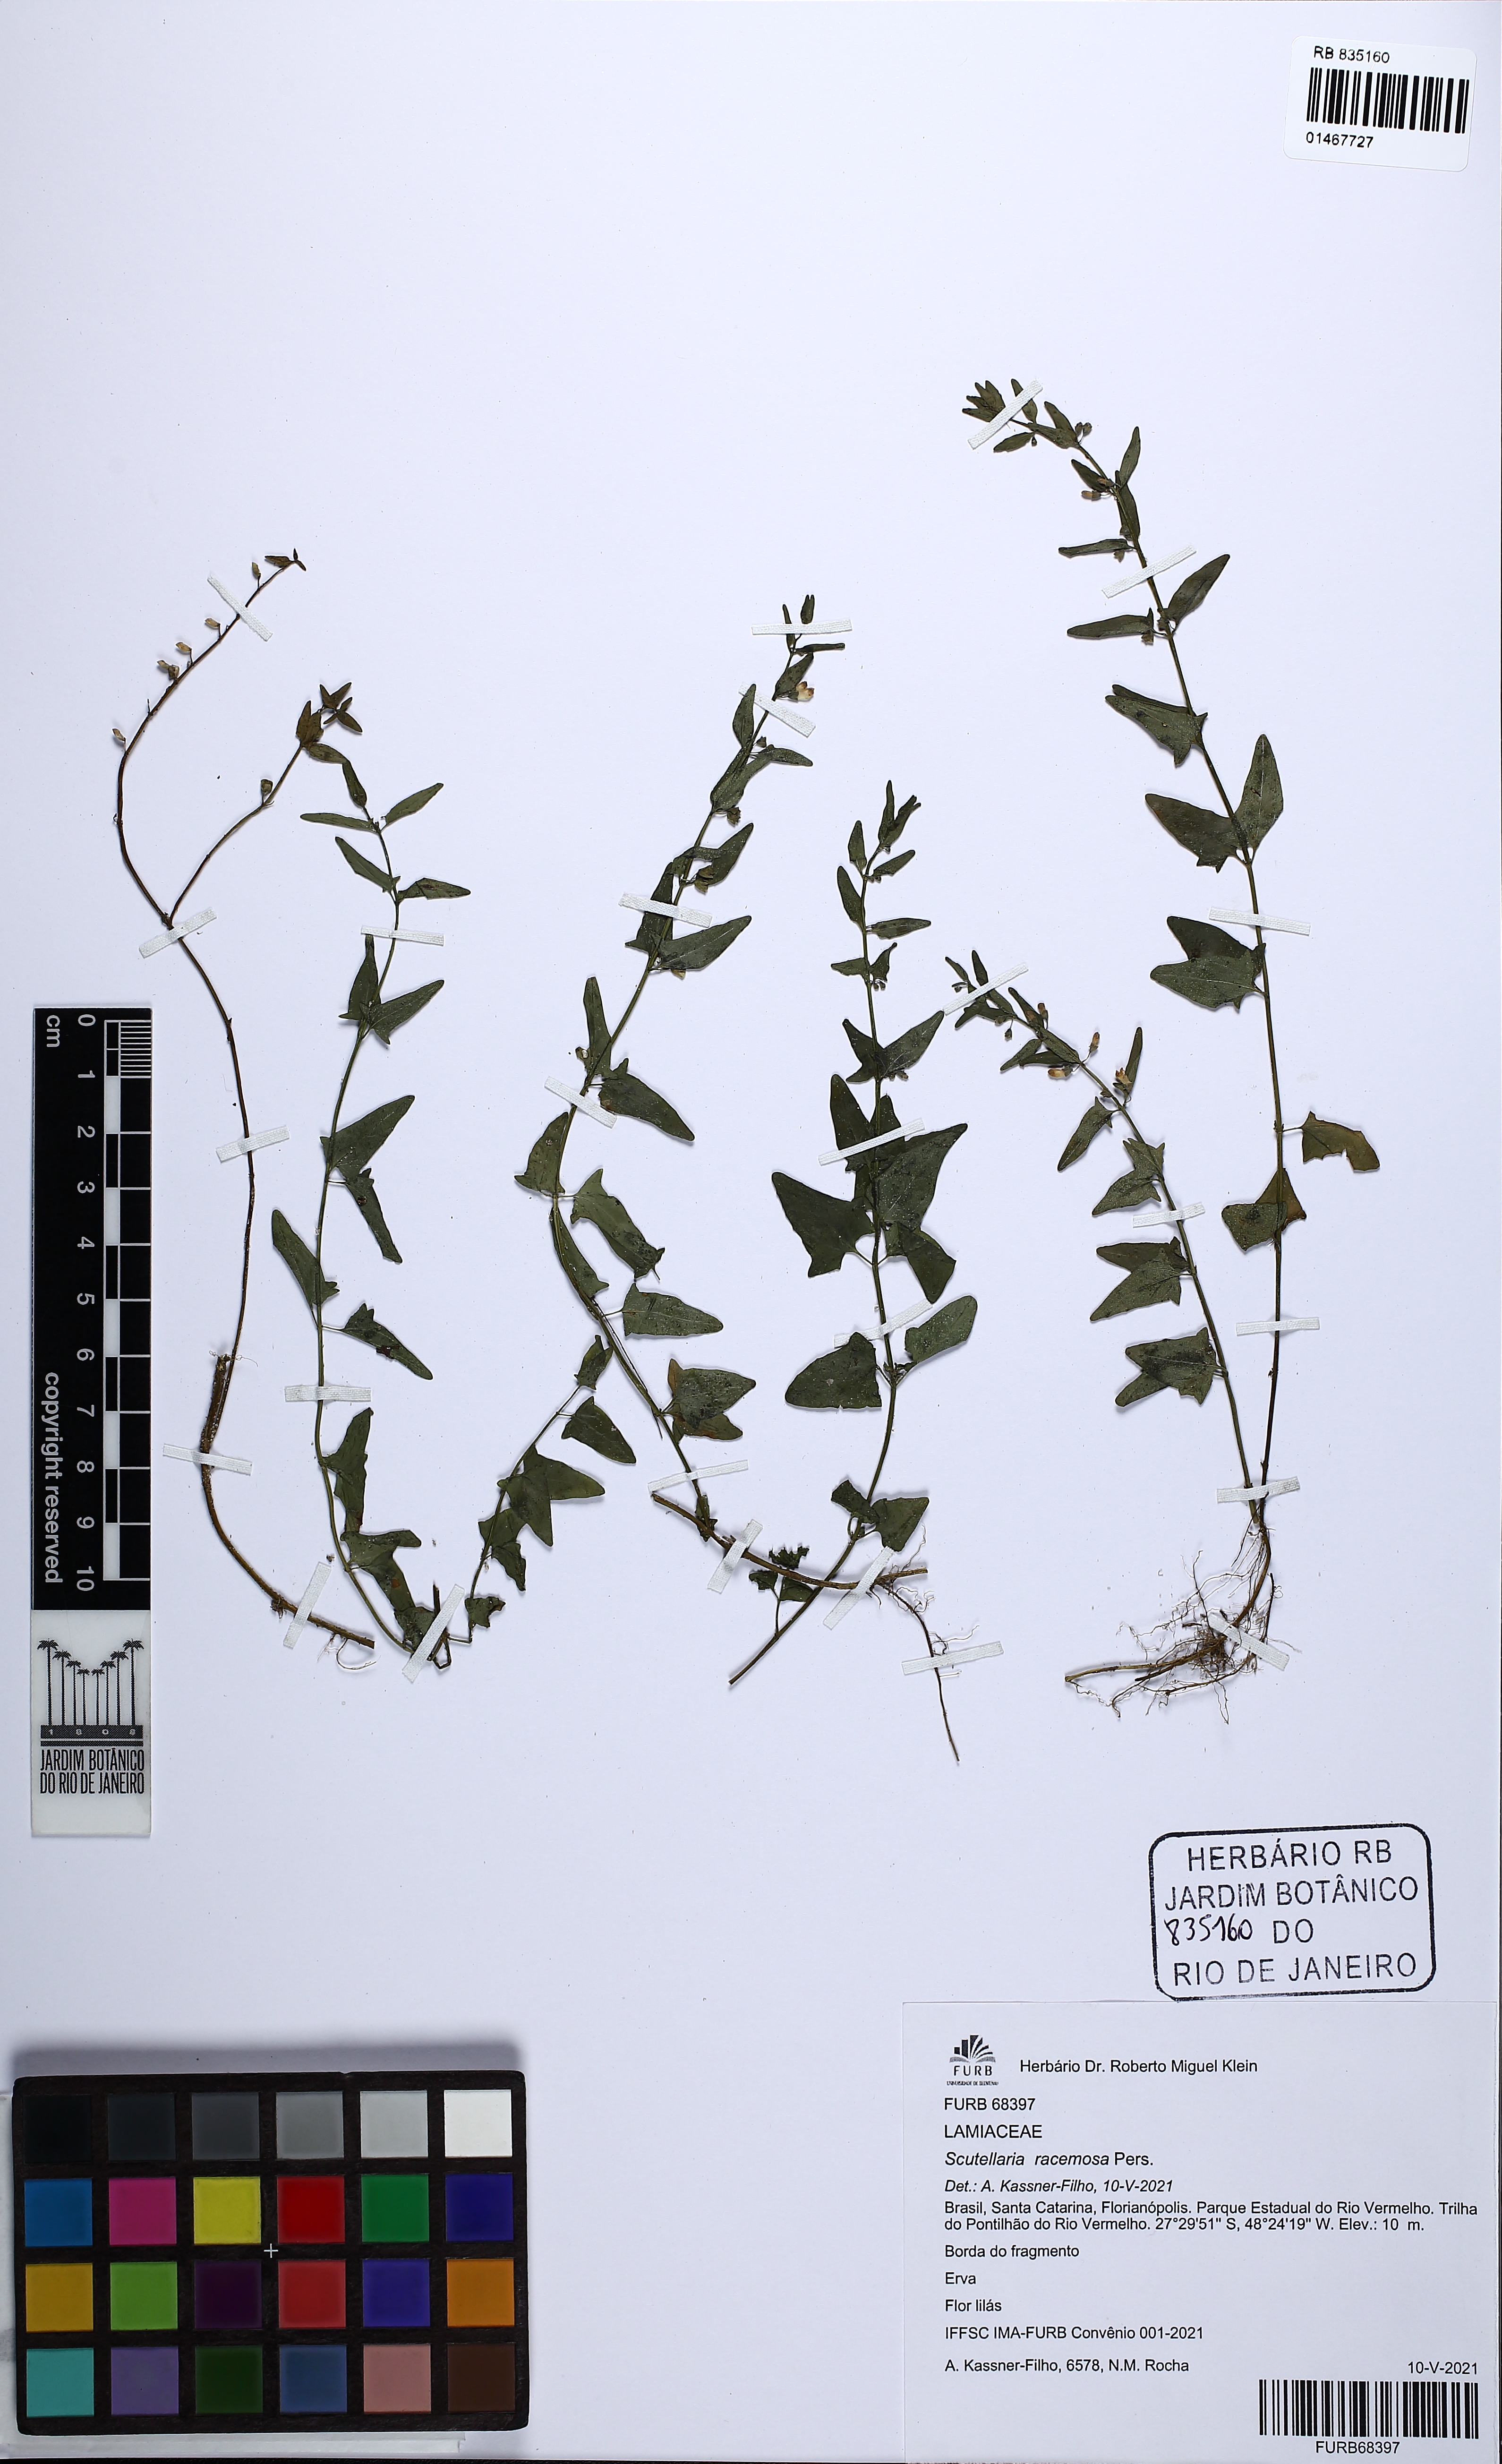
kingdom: Plantae
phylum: Tracheophyta
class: Magnoliopsida
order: Lamiales
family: Lamiaceae
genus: Scutellaria
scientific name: Scutellaria racemosa
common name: South american skullcap
